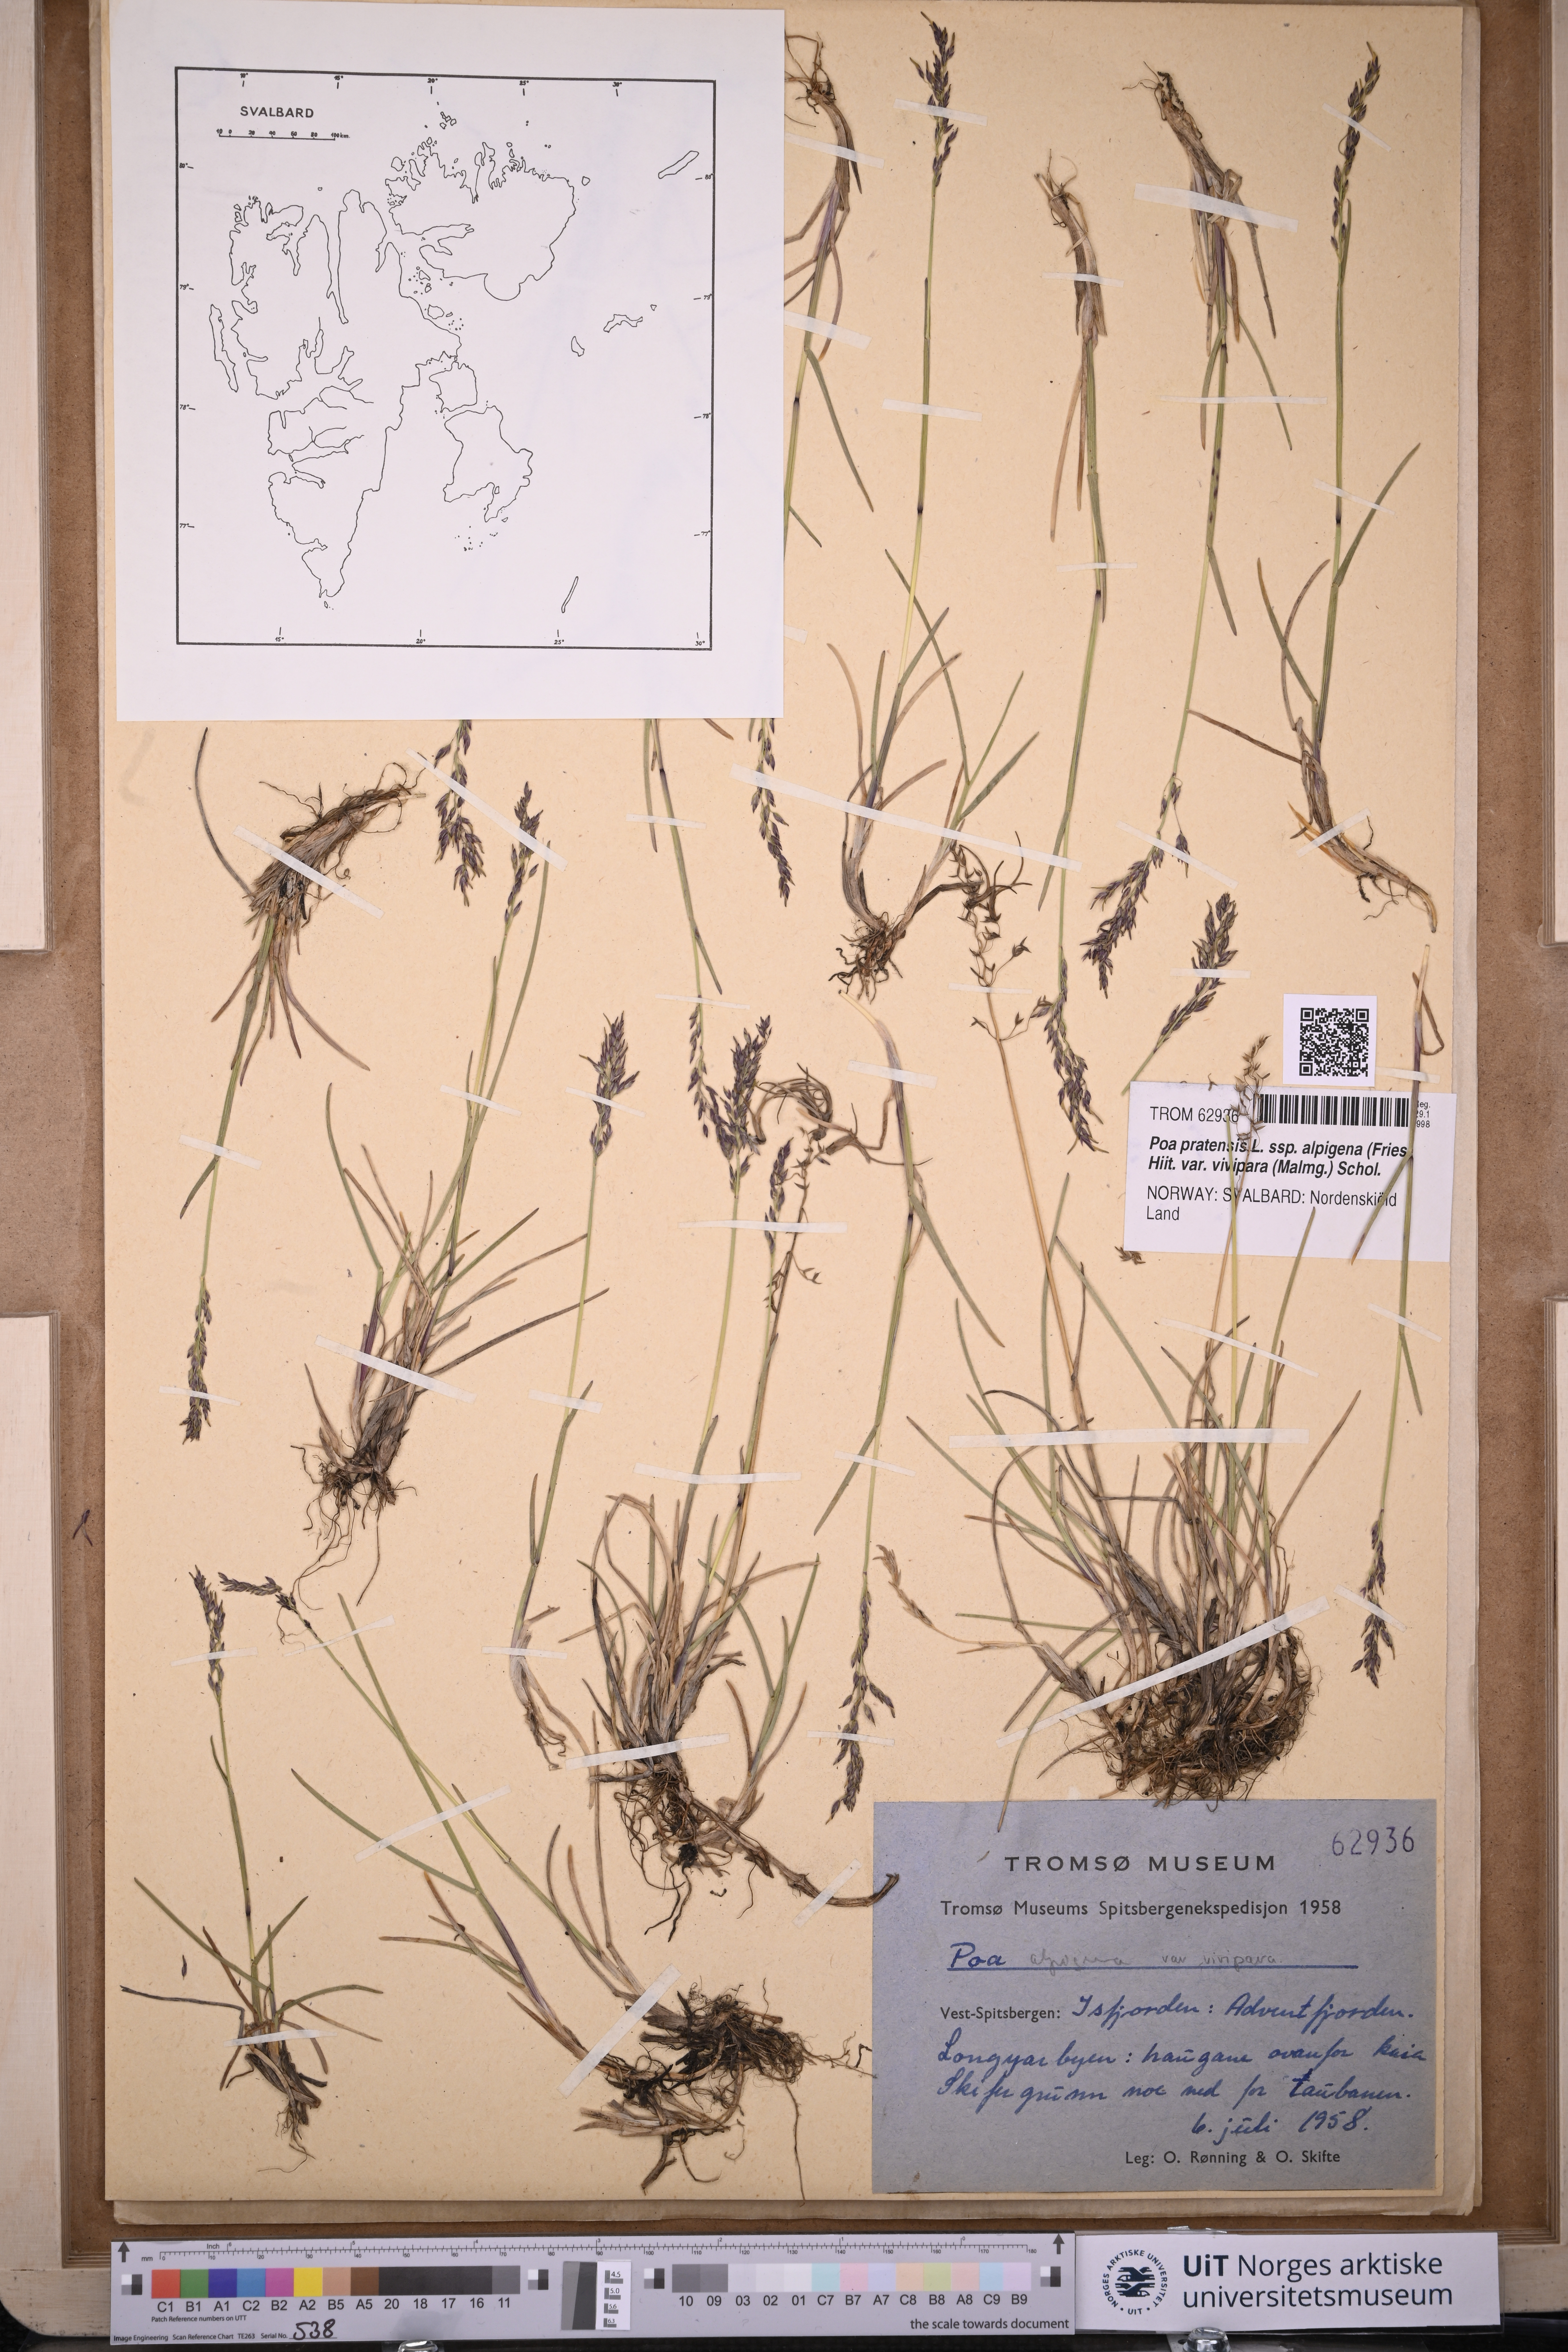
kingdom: Plantae
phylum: Tracheophyta
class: Liliopsida
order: Poales
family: Poaceae
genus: Poa
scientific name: Poa arctica
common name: Arctic bluegrass
